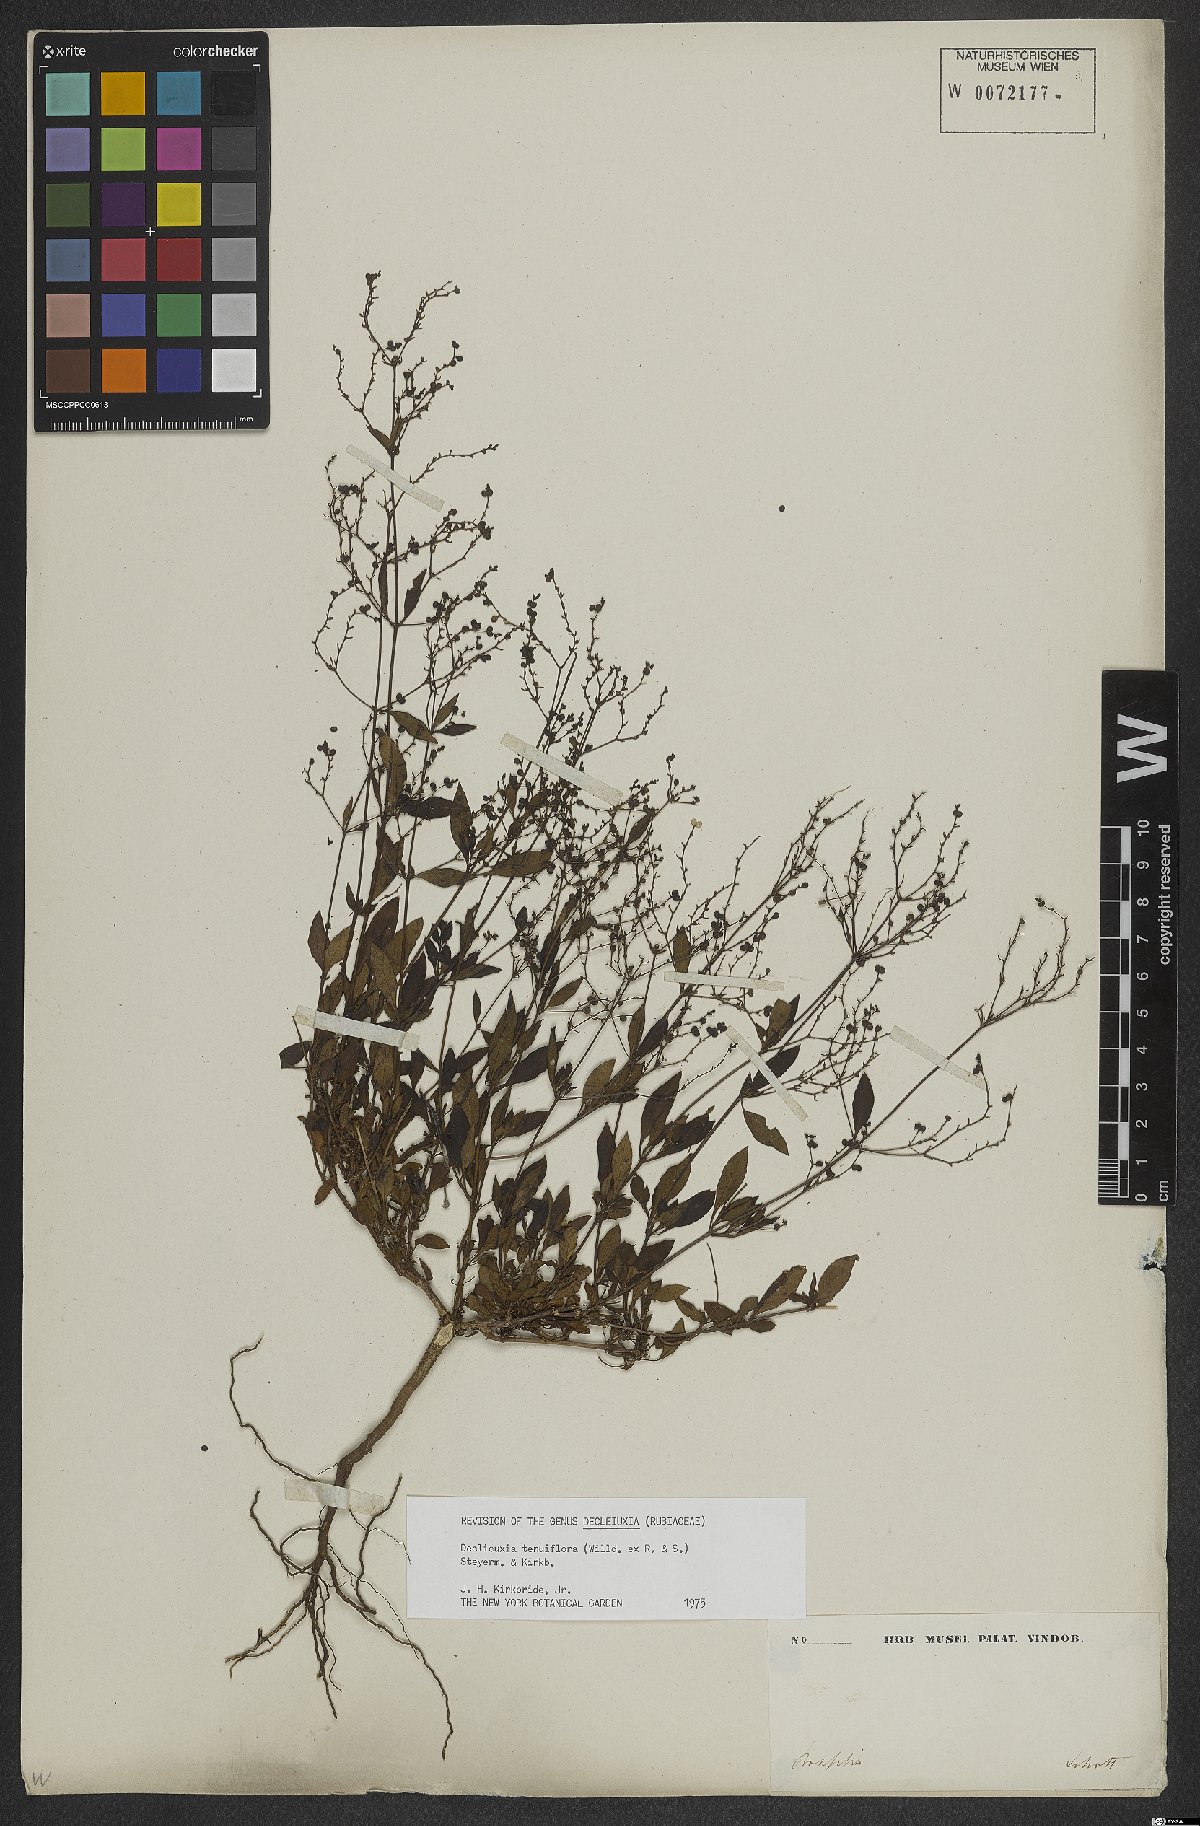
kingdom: Plantae
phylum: Tracheophyta
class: Magnoliopsida
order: Gentianales
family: Rubiaceae
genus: Declieuxia
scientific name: Declieuxia tenuiflora
